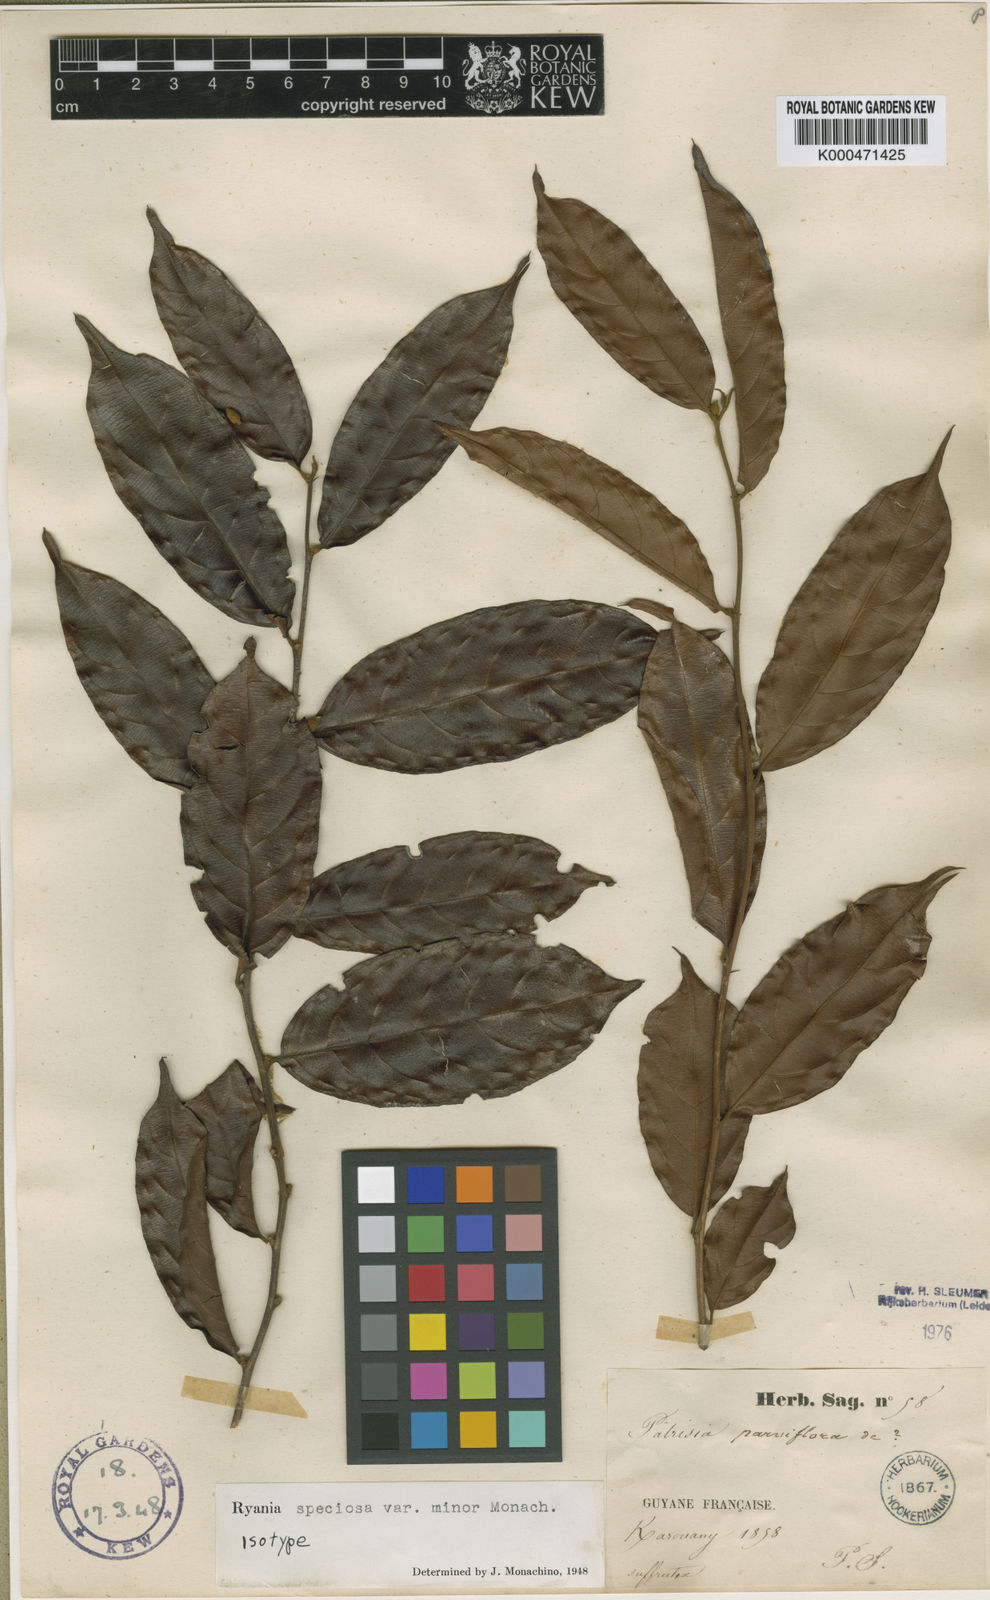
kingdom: Plantae
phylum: Tracheophyta
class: Magnoliopsida
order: Malpighiales
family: Salicaceae
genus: Ryania
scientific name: Ryania speciosa
